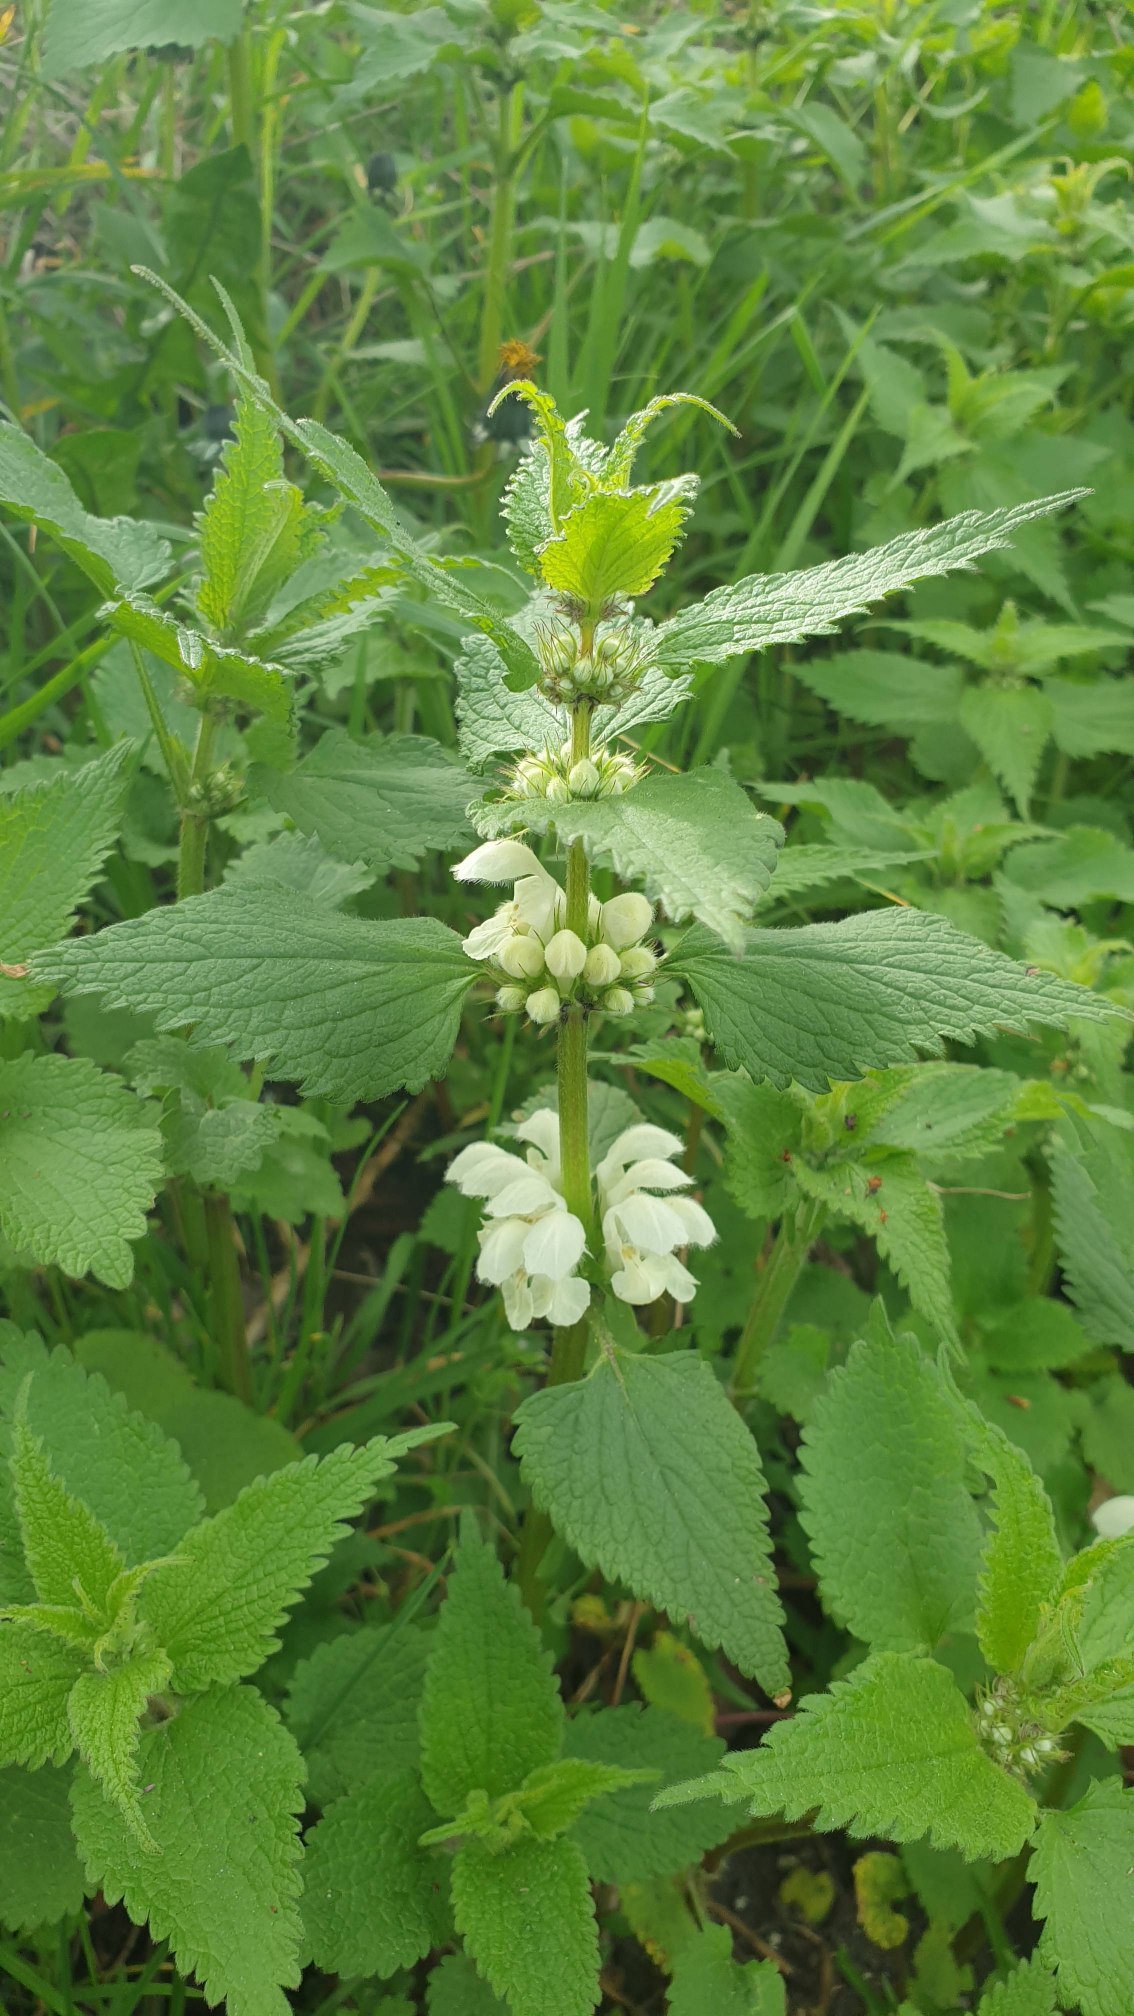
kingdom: Plantae
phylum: Tracheophyta
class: Magnoliopsida
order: Lamiales
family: Lamiaceae
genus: Lamium
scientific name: Lamium album
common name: Døvnælde
